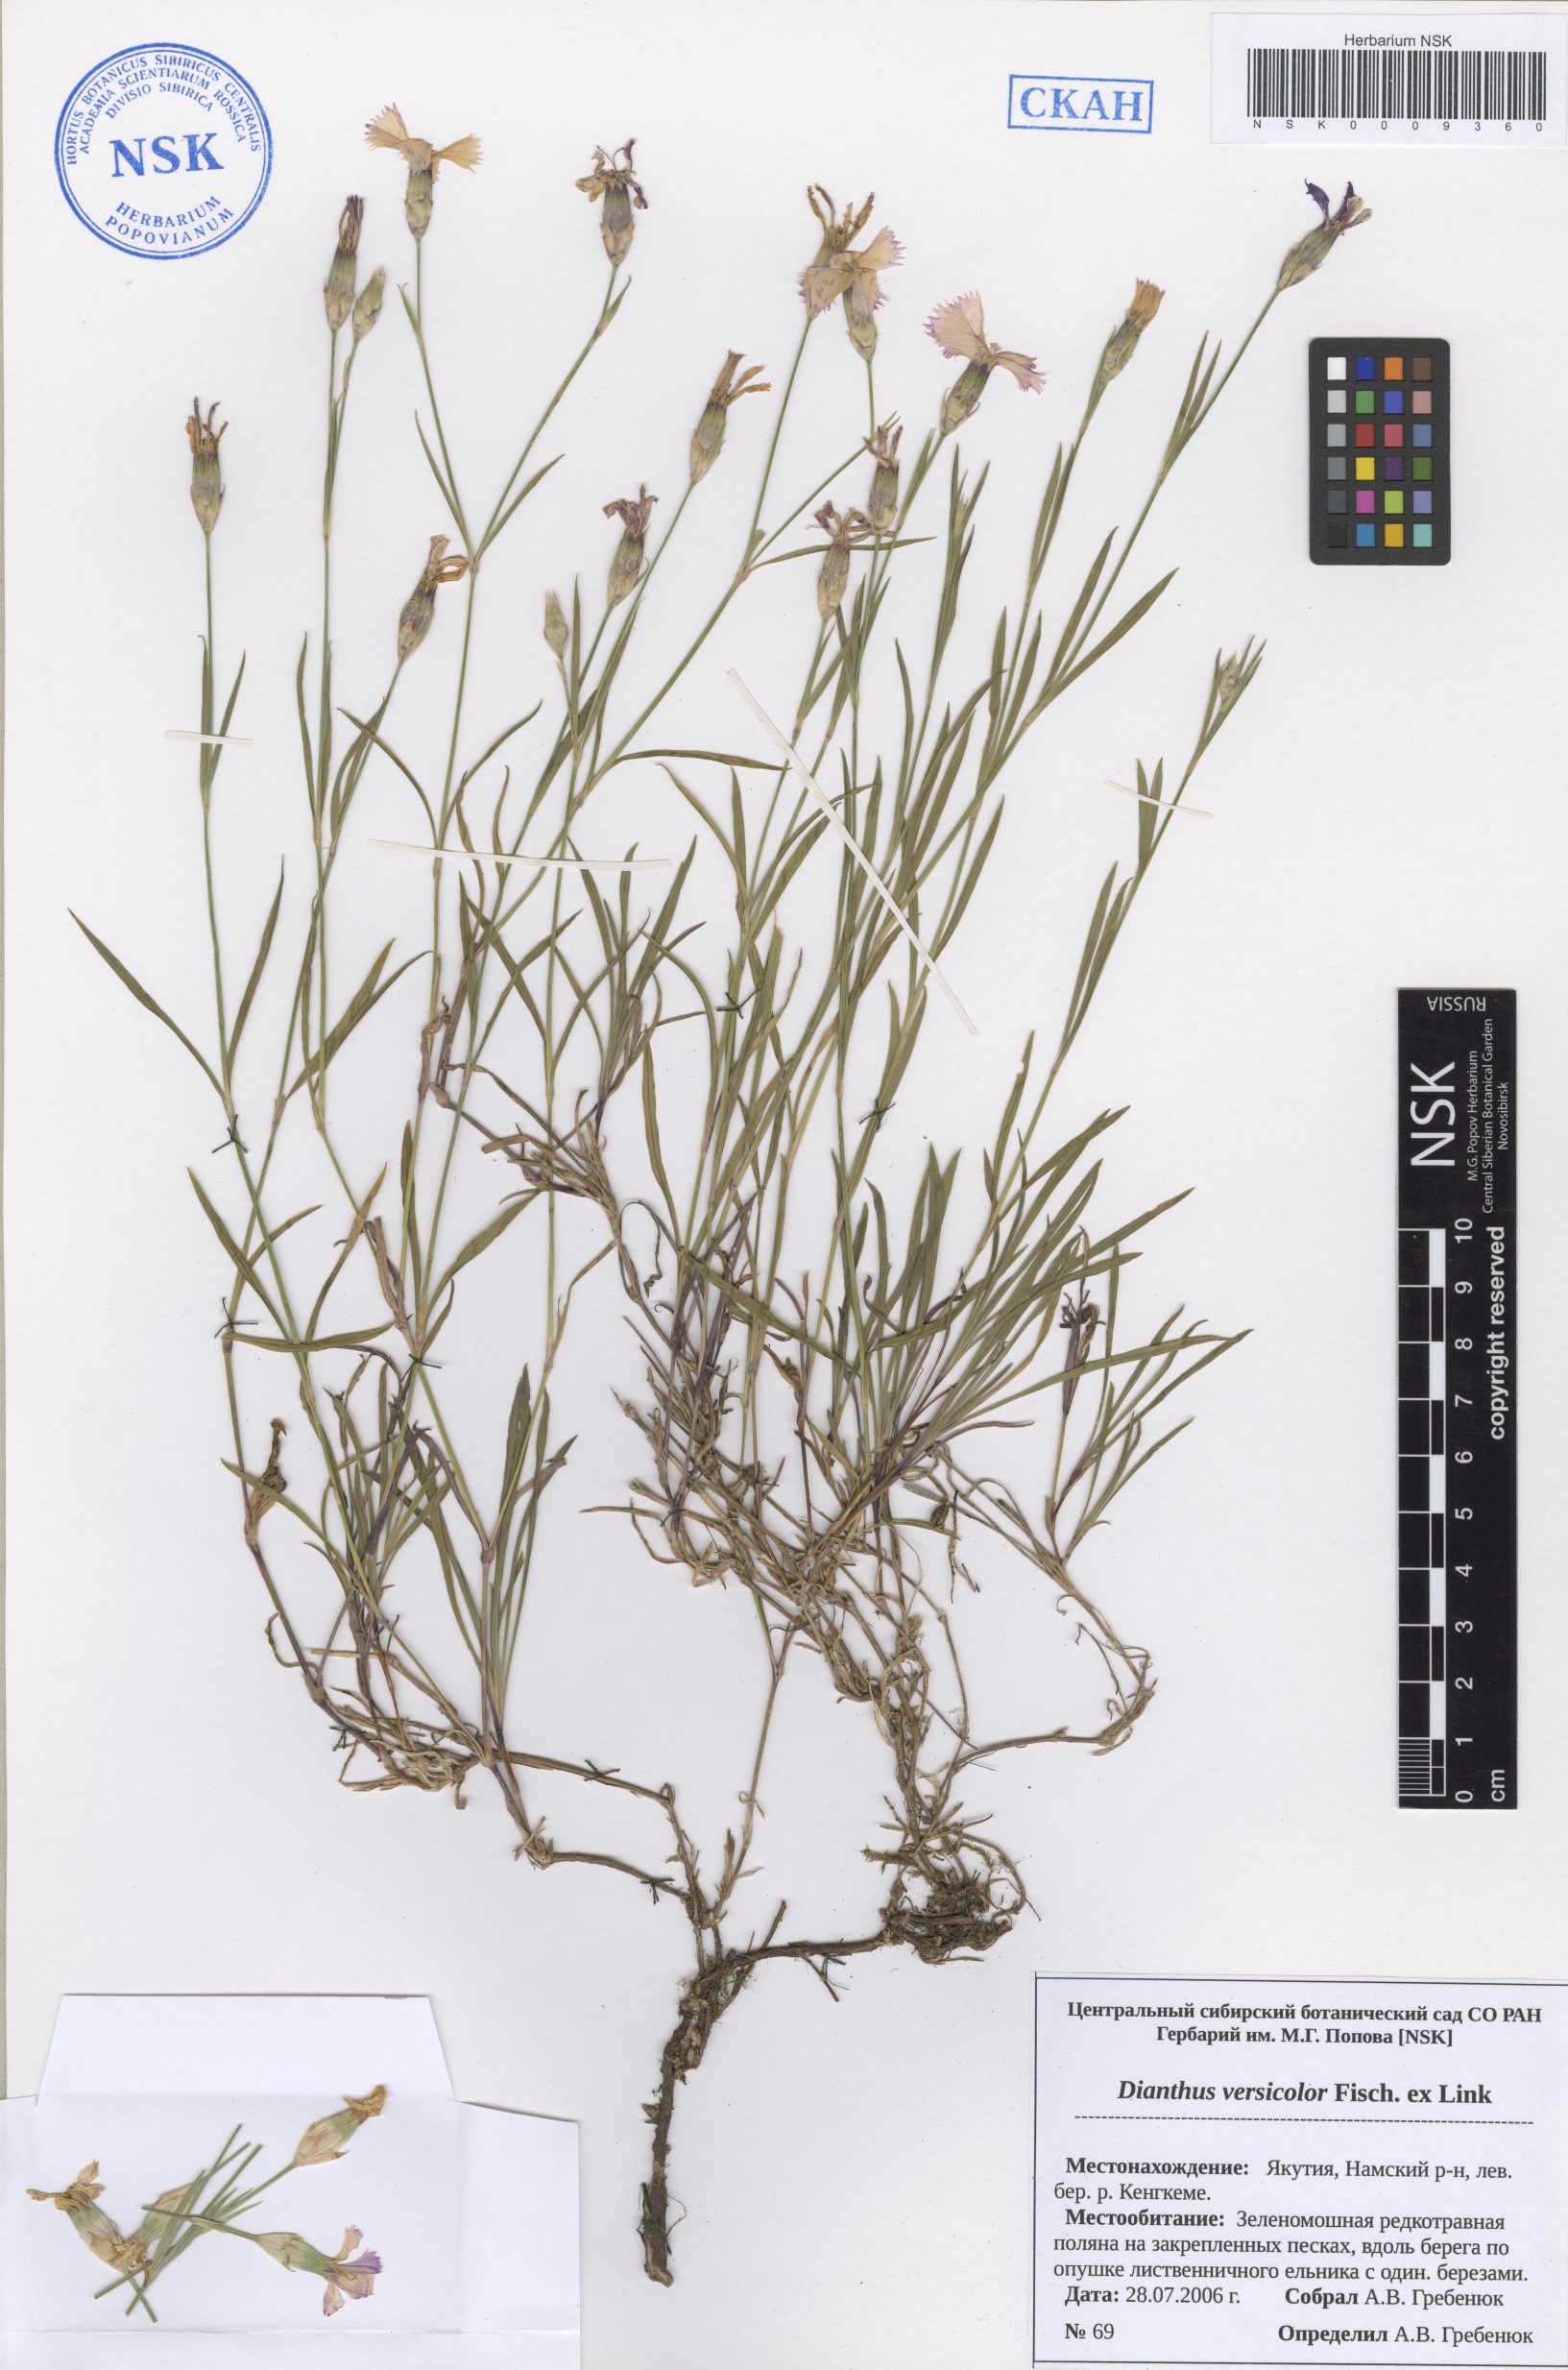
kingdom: Plantae
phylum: Tracheophyta
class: Magnoliopsida
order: Caryophyllales
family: Caryophyllaceae
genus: Dianthus
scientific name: Dianthus chinensis
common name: Rainbow pink
